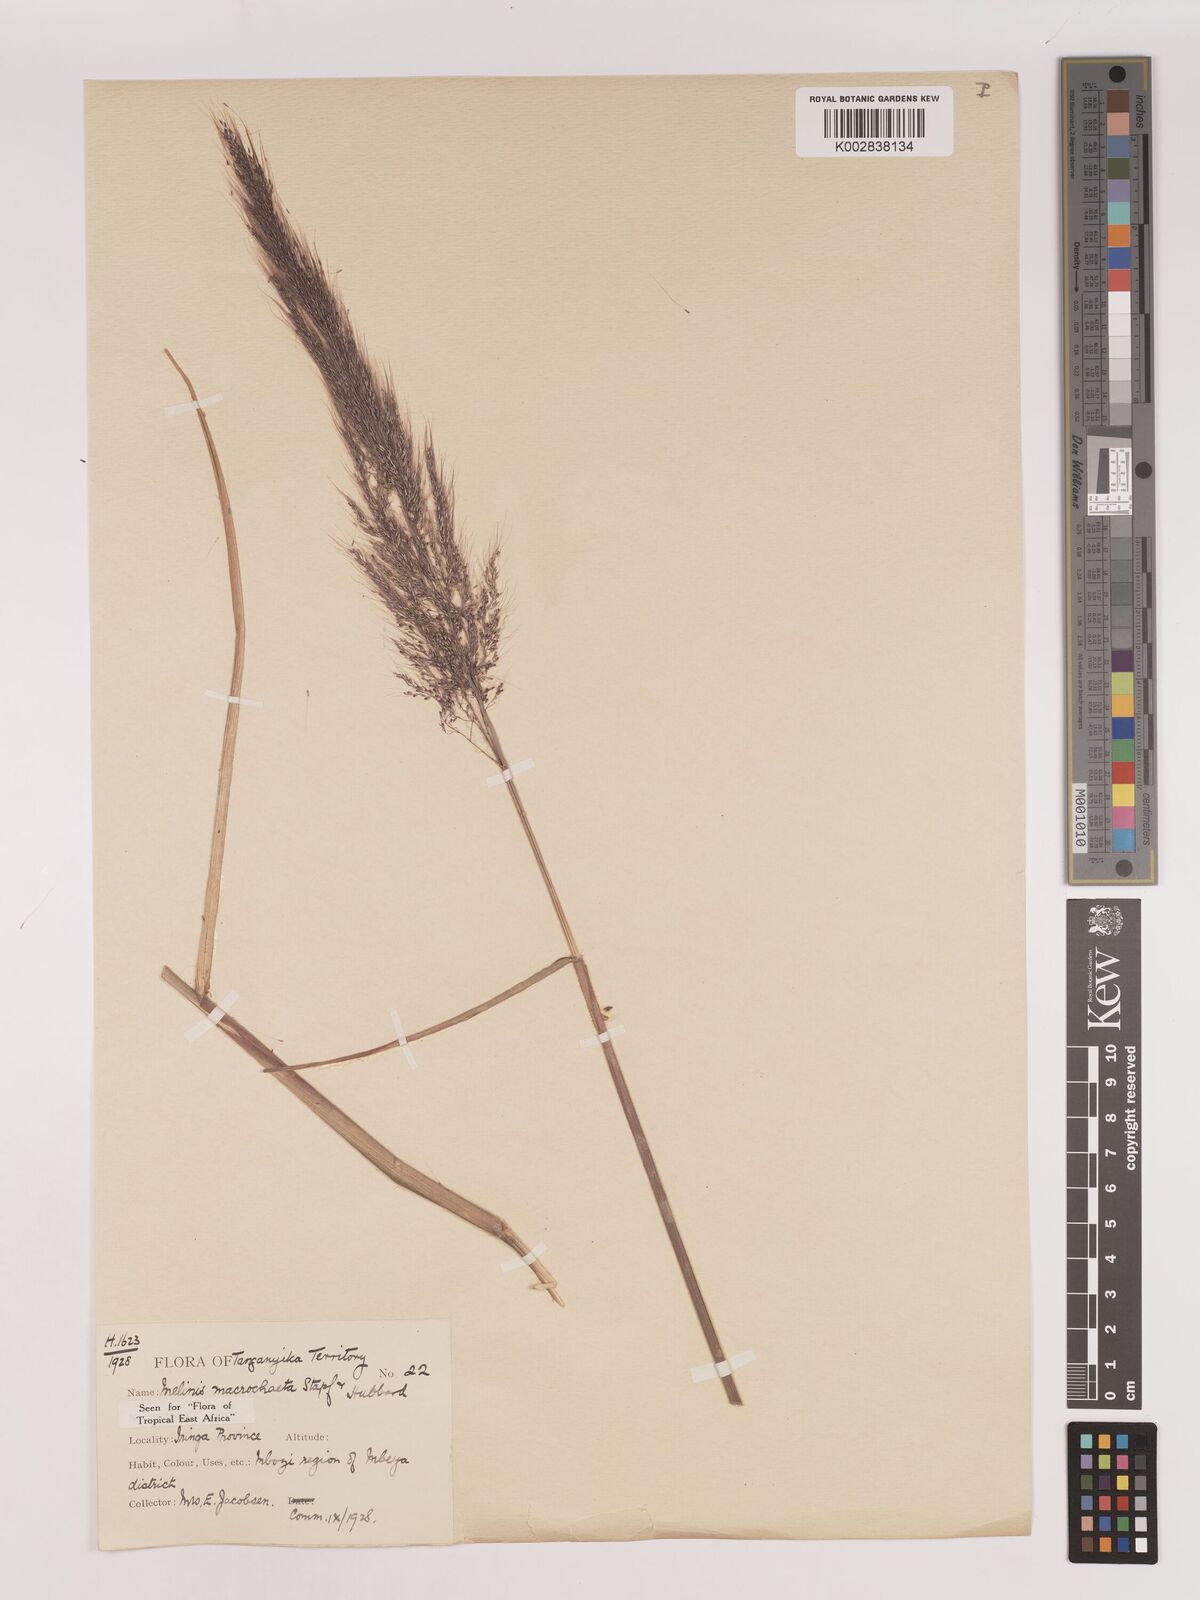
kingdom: Plantae
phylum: Tracheophyta
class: Liliopsida
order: Poales
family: Poaceae
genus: Melinis
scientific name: Melinis macrochaeta
